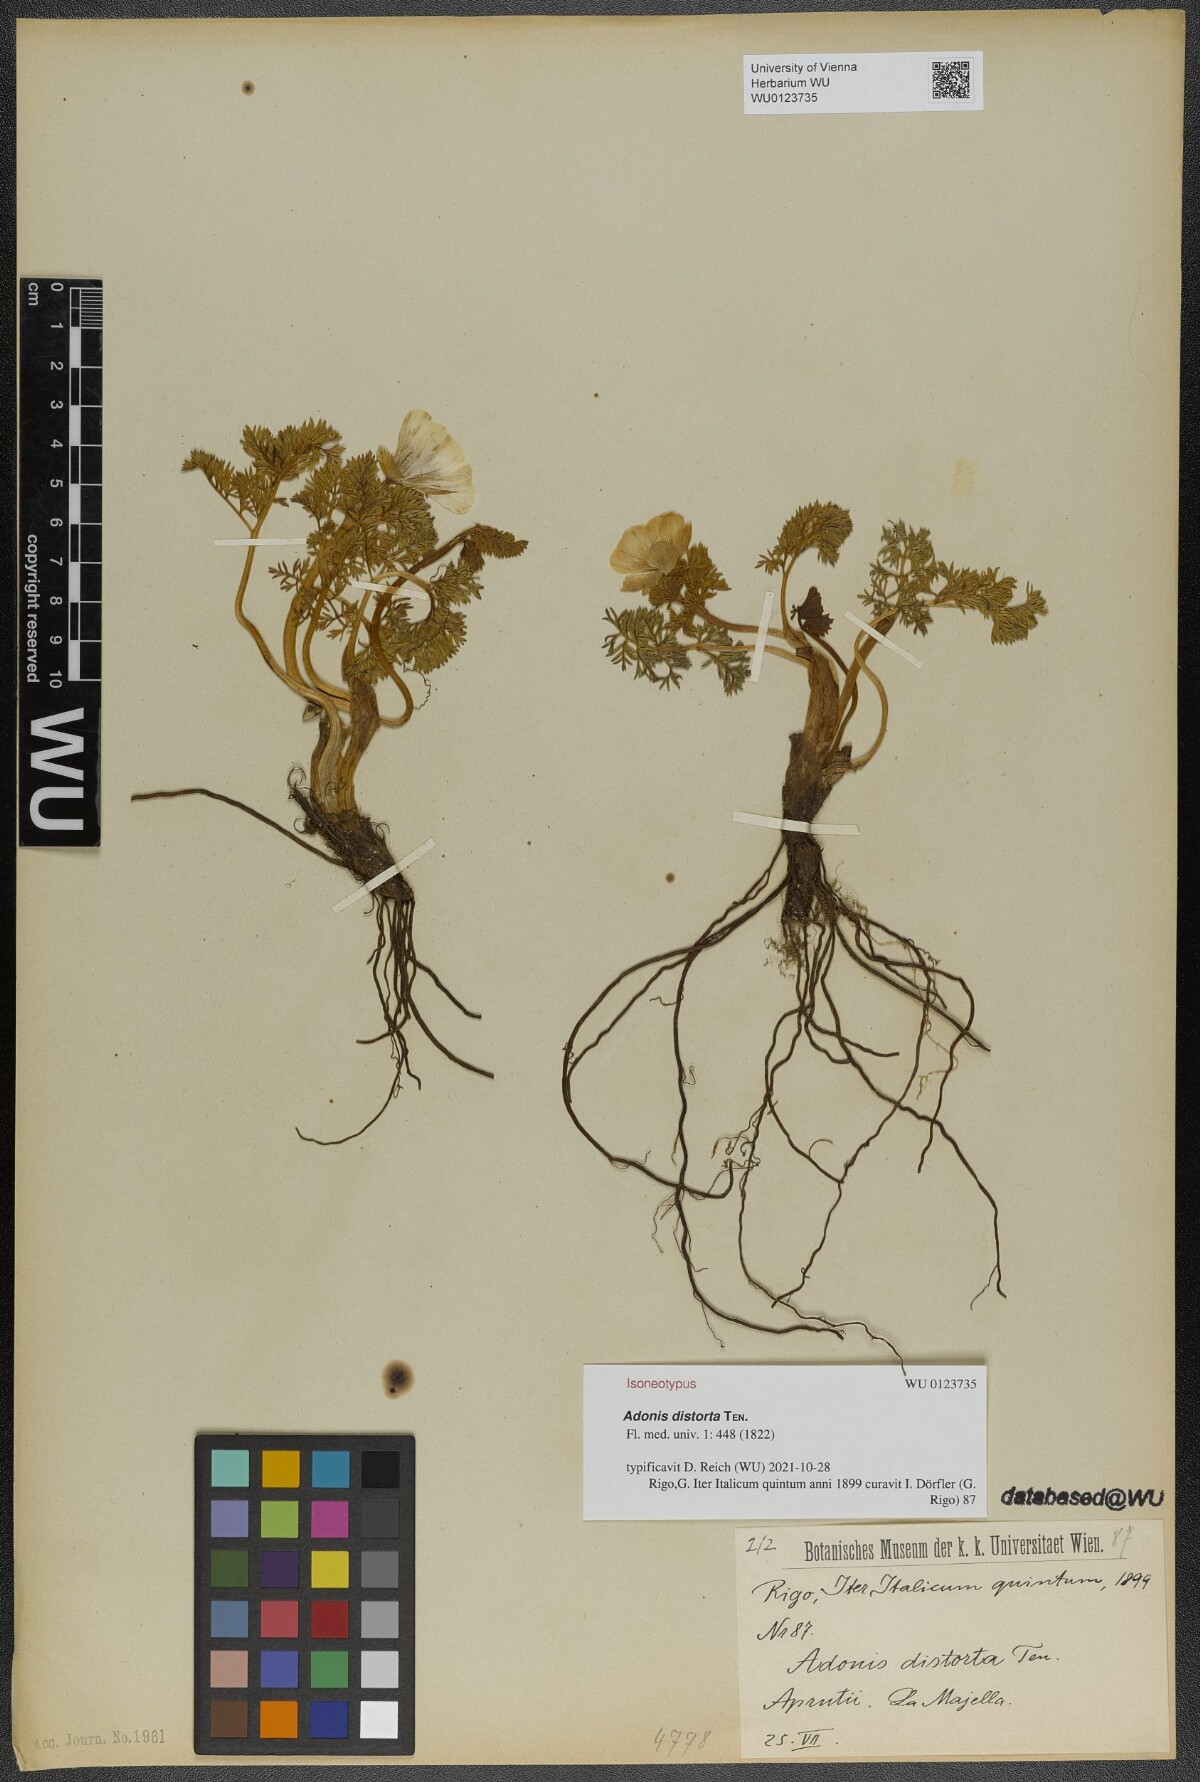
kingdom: Plantae
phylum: Tracheophyta
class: Magnoliopsida
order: Ranunculales
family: Ranunculaceae
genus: Adonis
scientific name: Adonis distorta
